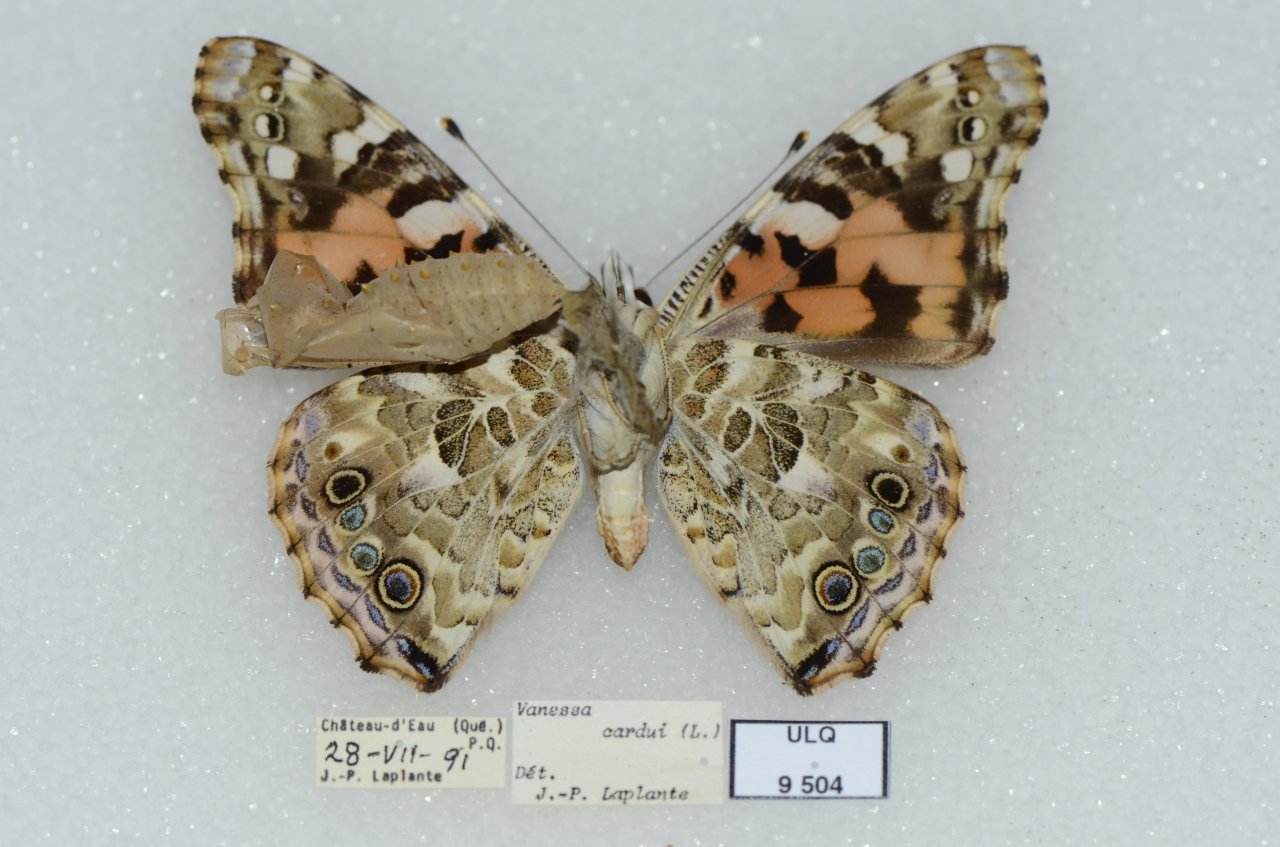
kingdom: Animalia
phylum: Arthropoda
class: Insecta
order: Lepidoptera
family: Nymphalidae
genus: Vanessa
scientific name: Vanessa cardui
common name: Painted Lady
